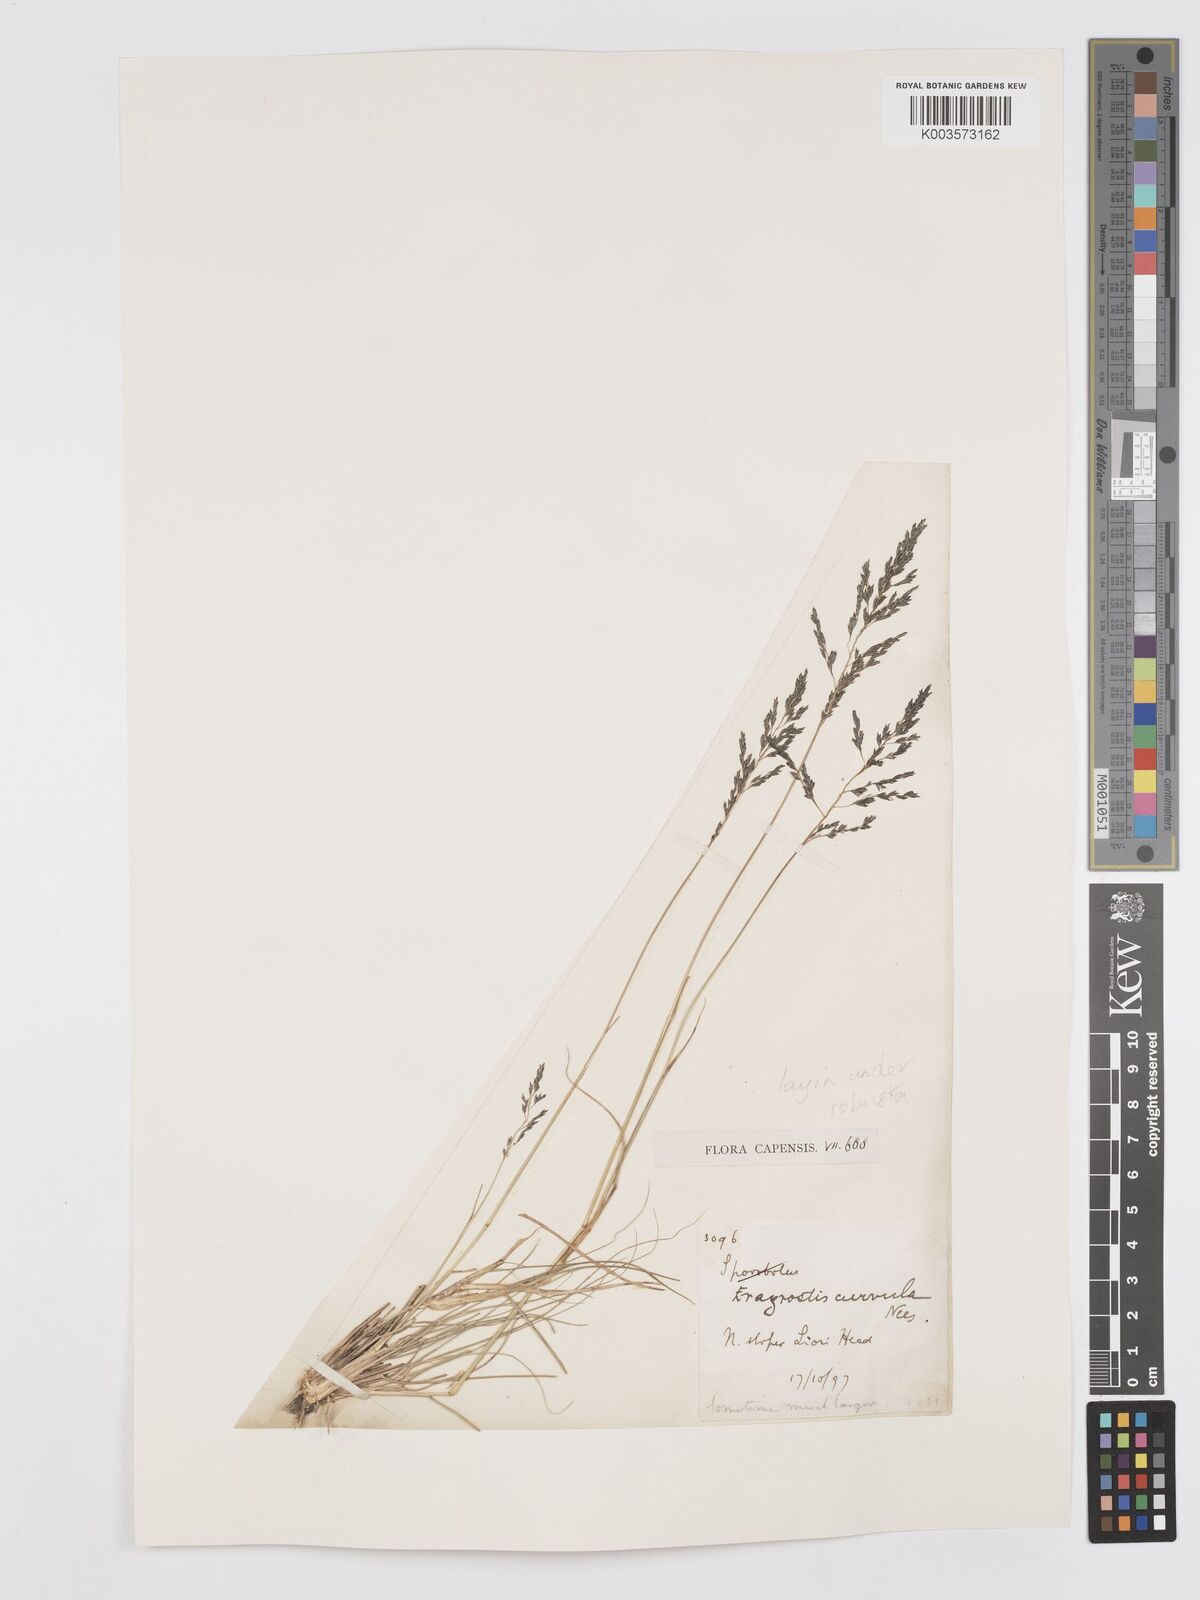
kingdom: Plantae
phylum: Tracheophyta
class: Liliopsida
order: Poales
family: Poaceae
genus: Eragrostis
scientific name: Eragrostis curvula
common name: African love-grass
